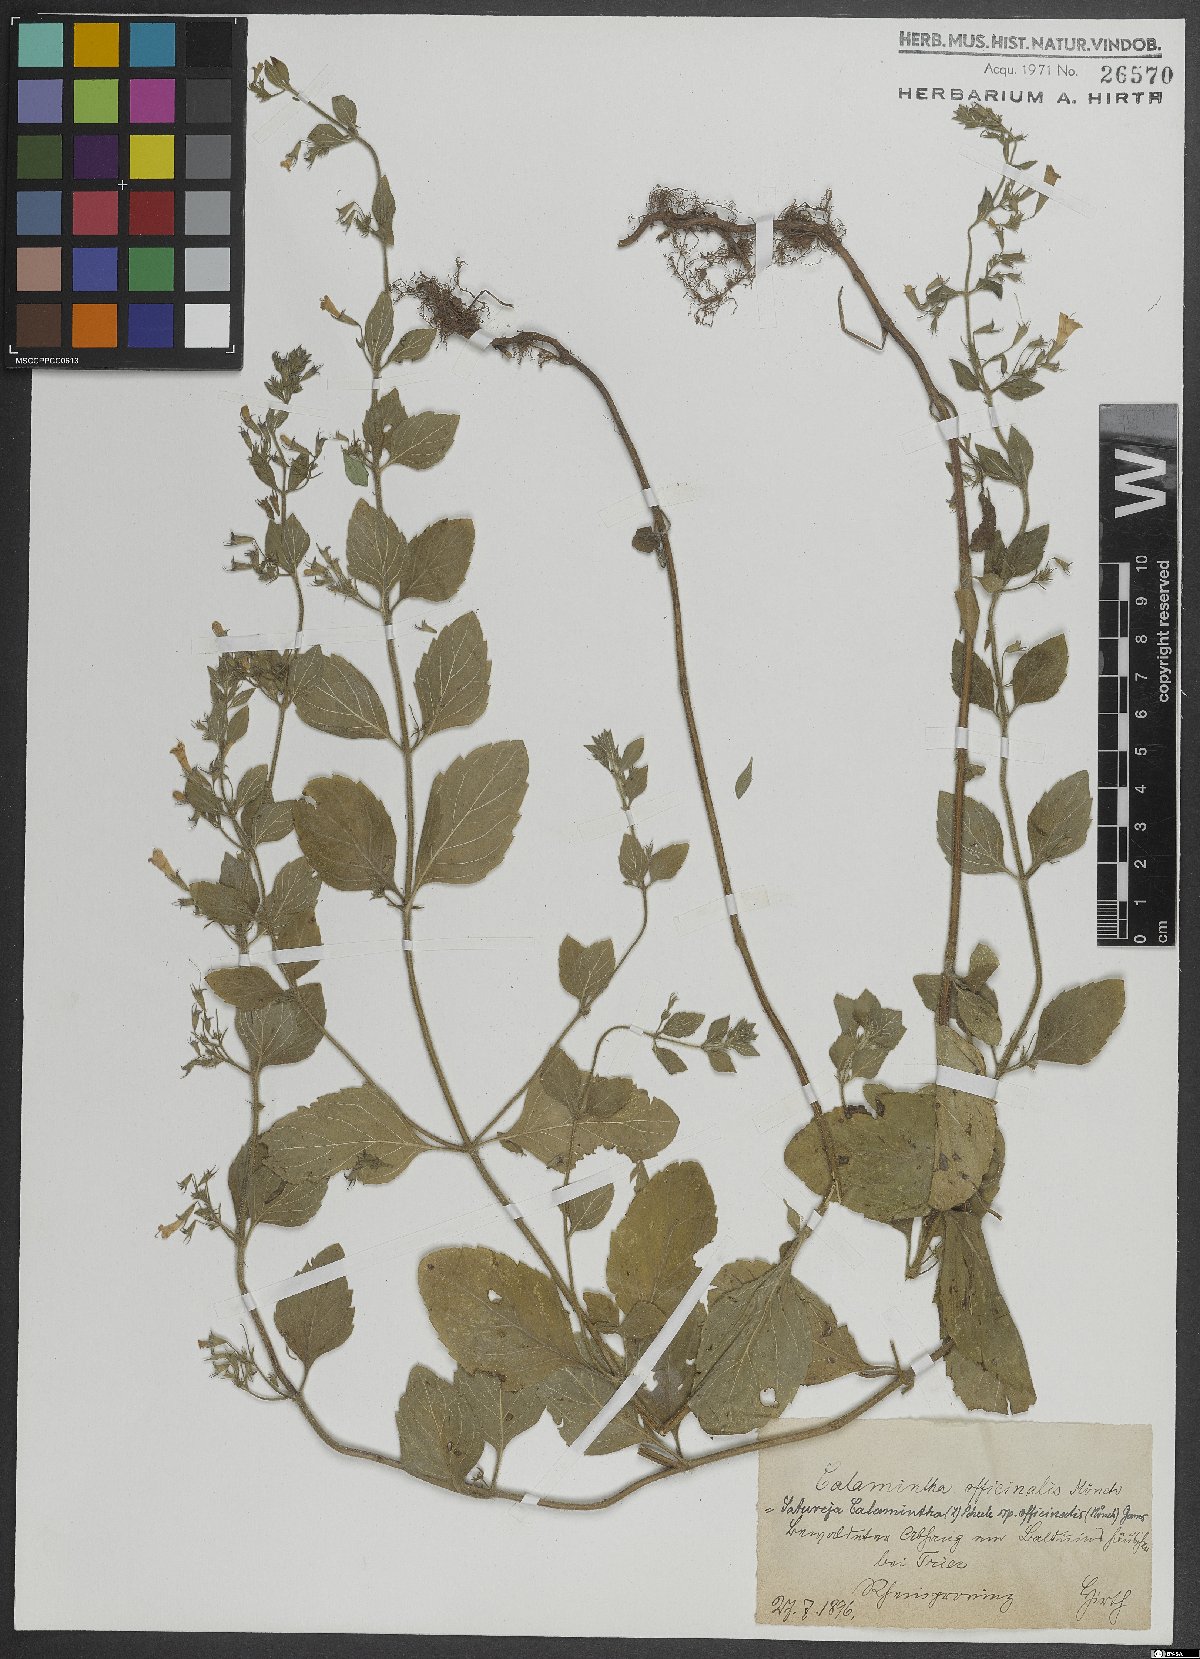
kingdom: Plantae
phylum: Tracheophyta
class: Magnoliopsida
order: Lamiales
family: Lamiaceae
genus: Clinopodium
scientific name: Clinopodium nepeta
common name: Lesser calamint
